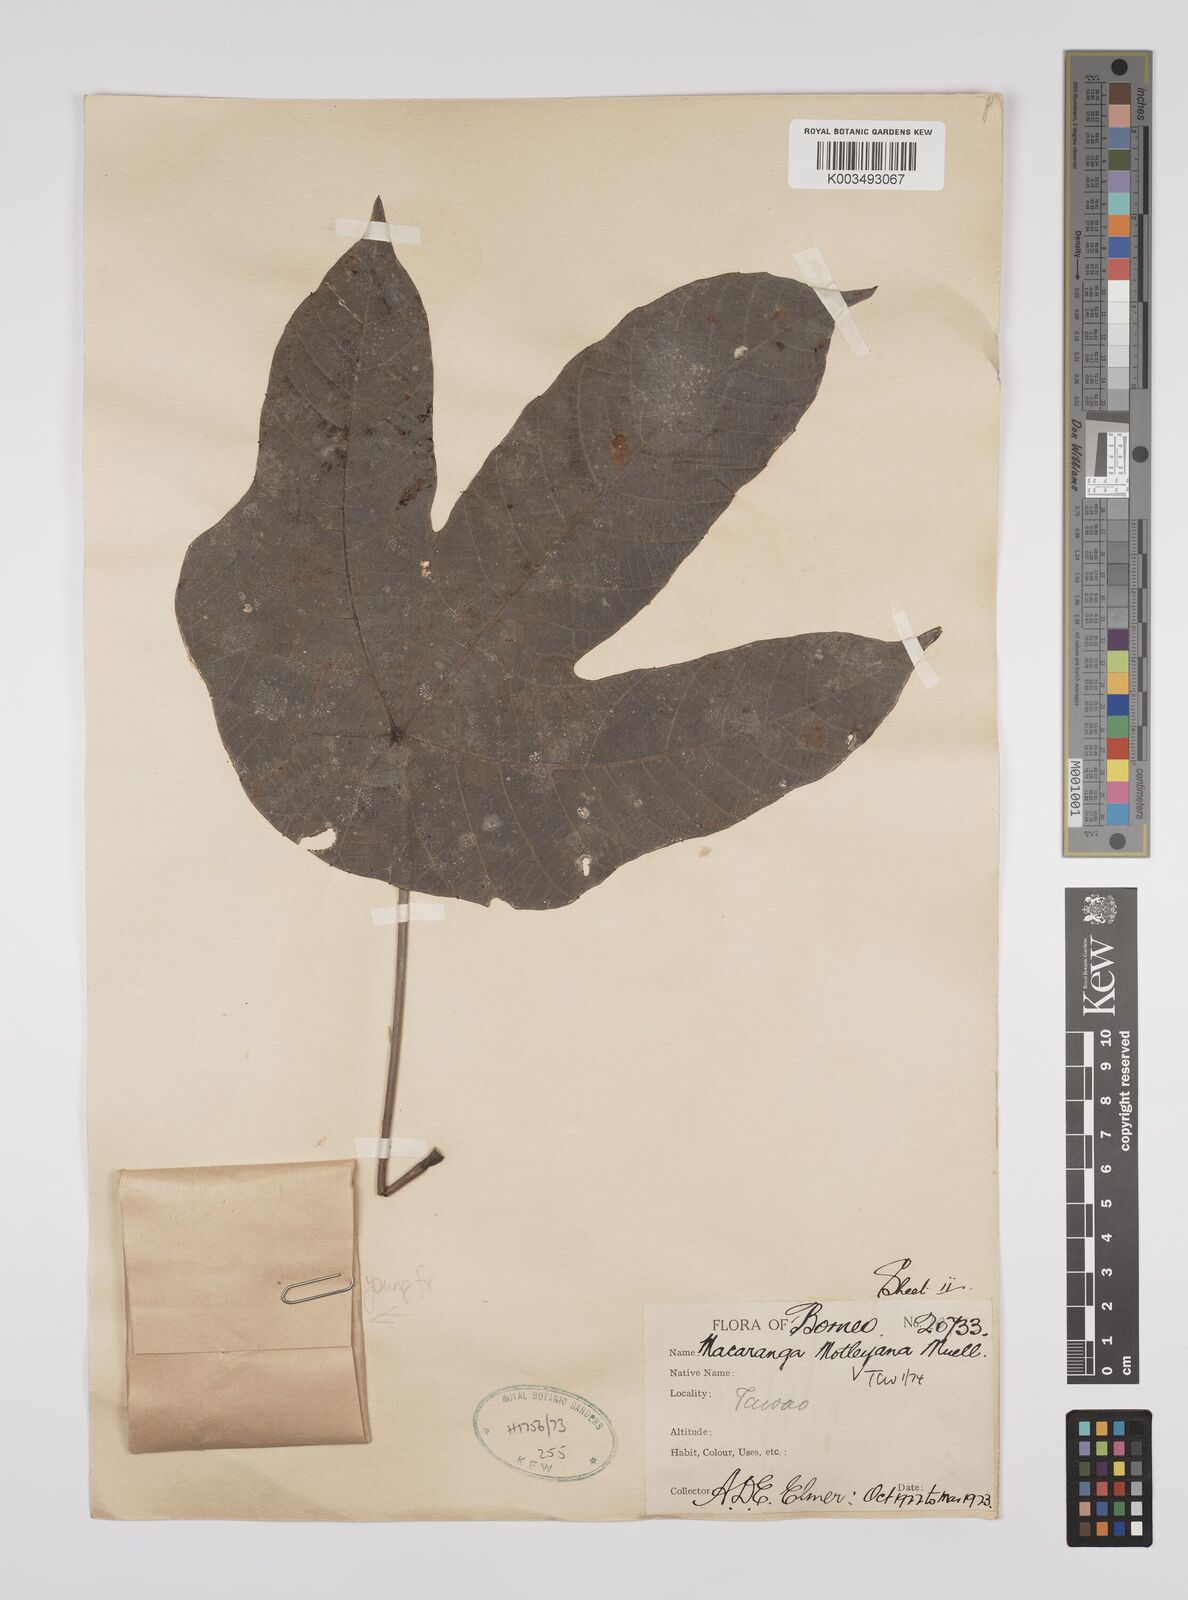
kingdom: Plantae
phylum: Tracheophyta
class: Magnoliopsida
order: Malpighiales
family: Euphorbiaceae
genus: Macaranga
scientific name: Macaranga motleyana
